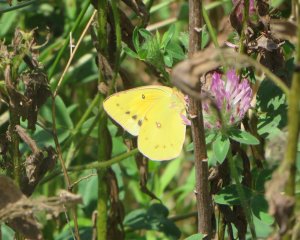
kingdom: Animalia
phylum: Arthropoda
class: Insecta
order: Lepidoptera
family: Pieridae
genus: Colias
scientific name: Colias eurytheme
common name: Orange Sulphur
